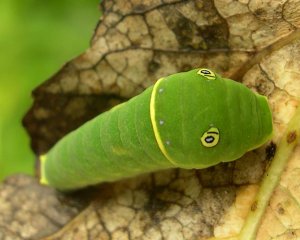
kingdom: Animalia
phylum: Arthropoda
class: Insecta
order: Lepidoptera
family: Papilionidae
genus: Pterourus
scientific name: Pterourus canadensis
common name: Canadian Tiger Swallowtail
